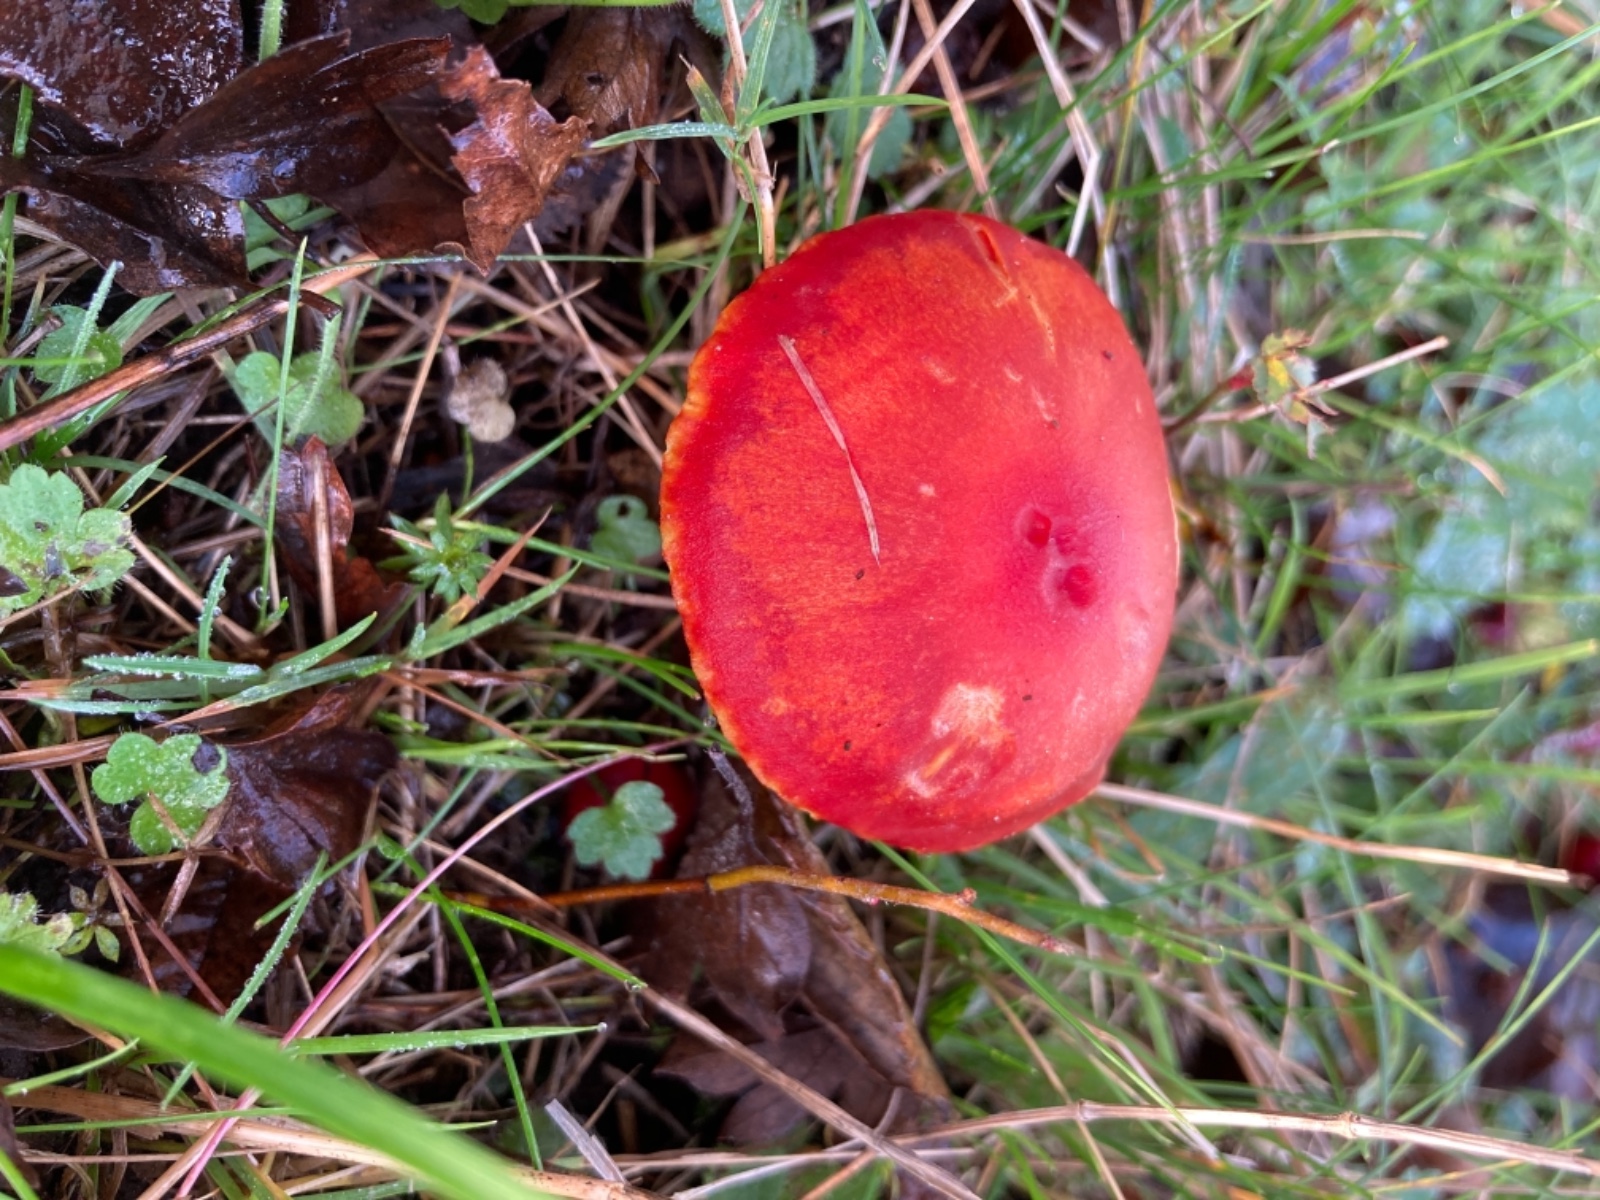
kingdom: Fungi
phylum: Basidiomycota
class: Agaricomycetes
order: Agaricales
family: Hygrophoraceae
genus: Hygrocybe
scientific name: Hygrocybe coccinea
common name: cinnober-vokshat
